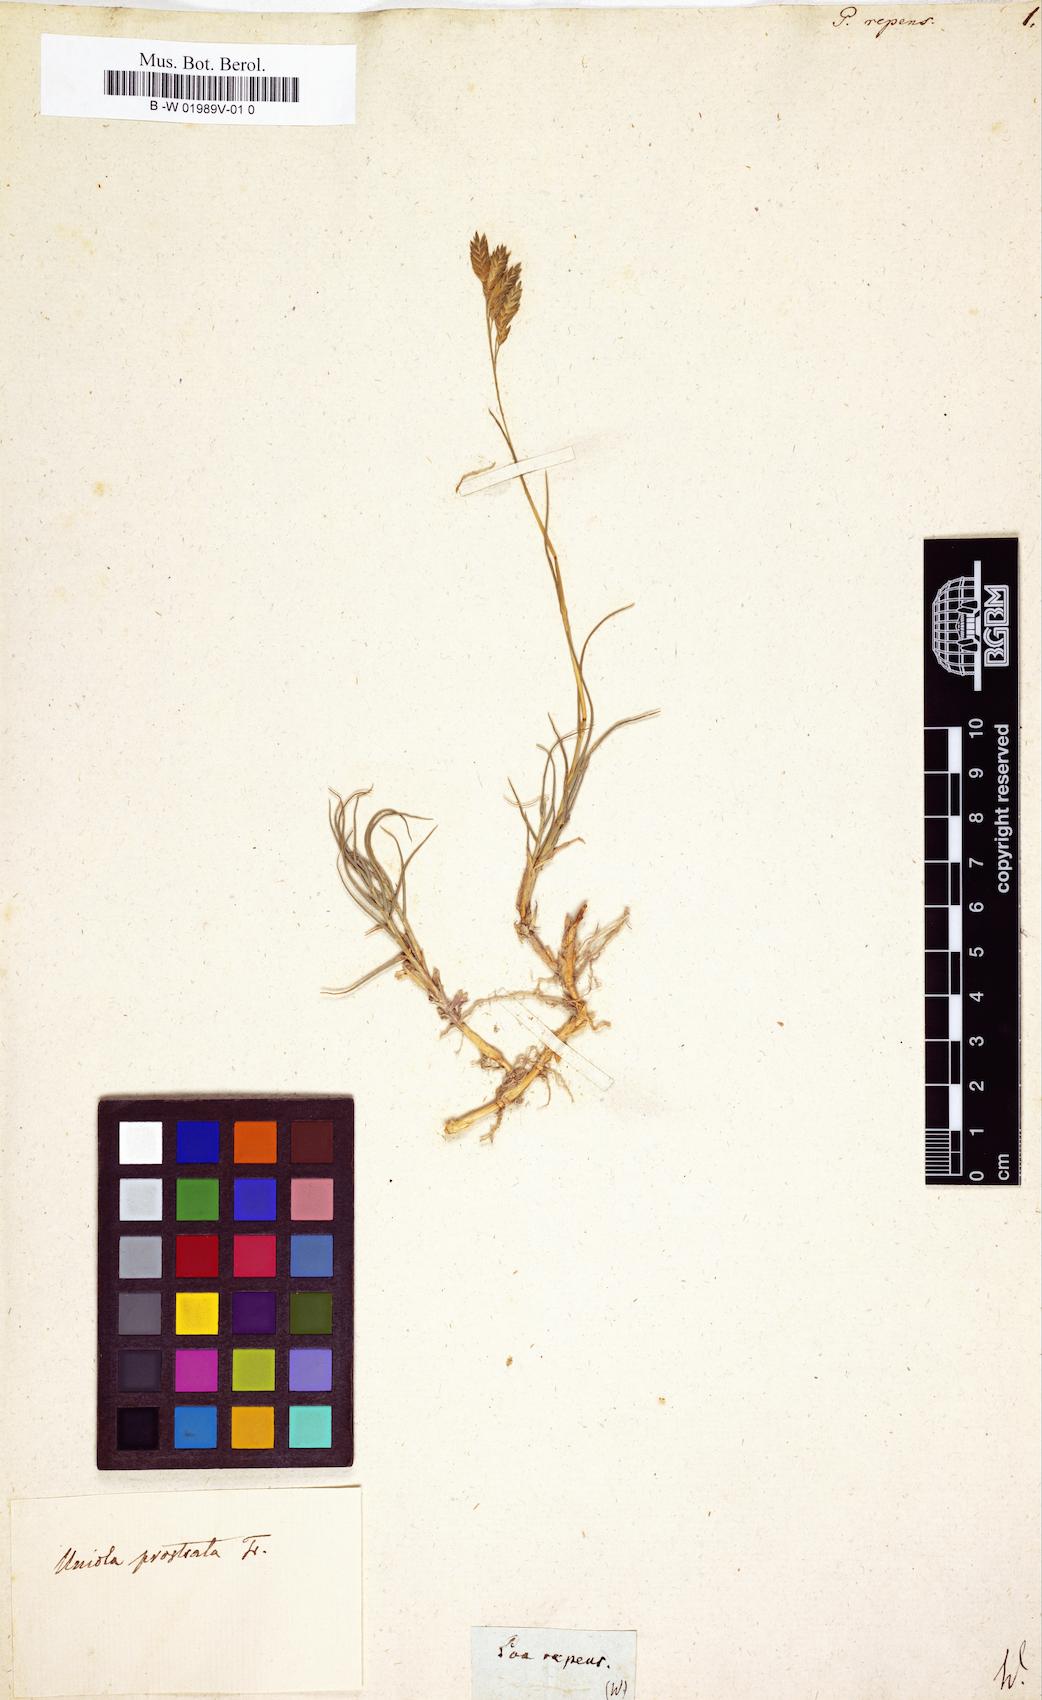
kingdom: Plantae
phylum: Tracheophyta
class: Liliopsida
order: Poales
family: Poaceae
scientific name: Poaceae
